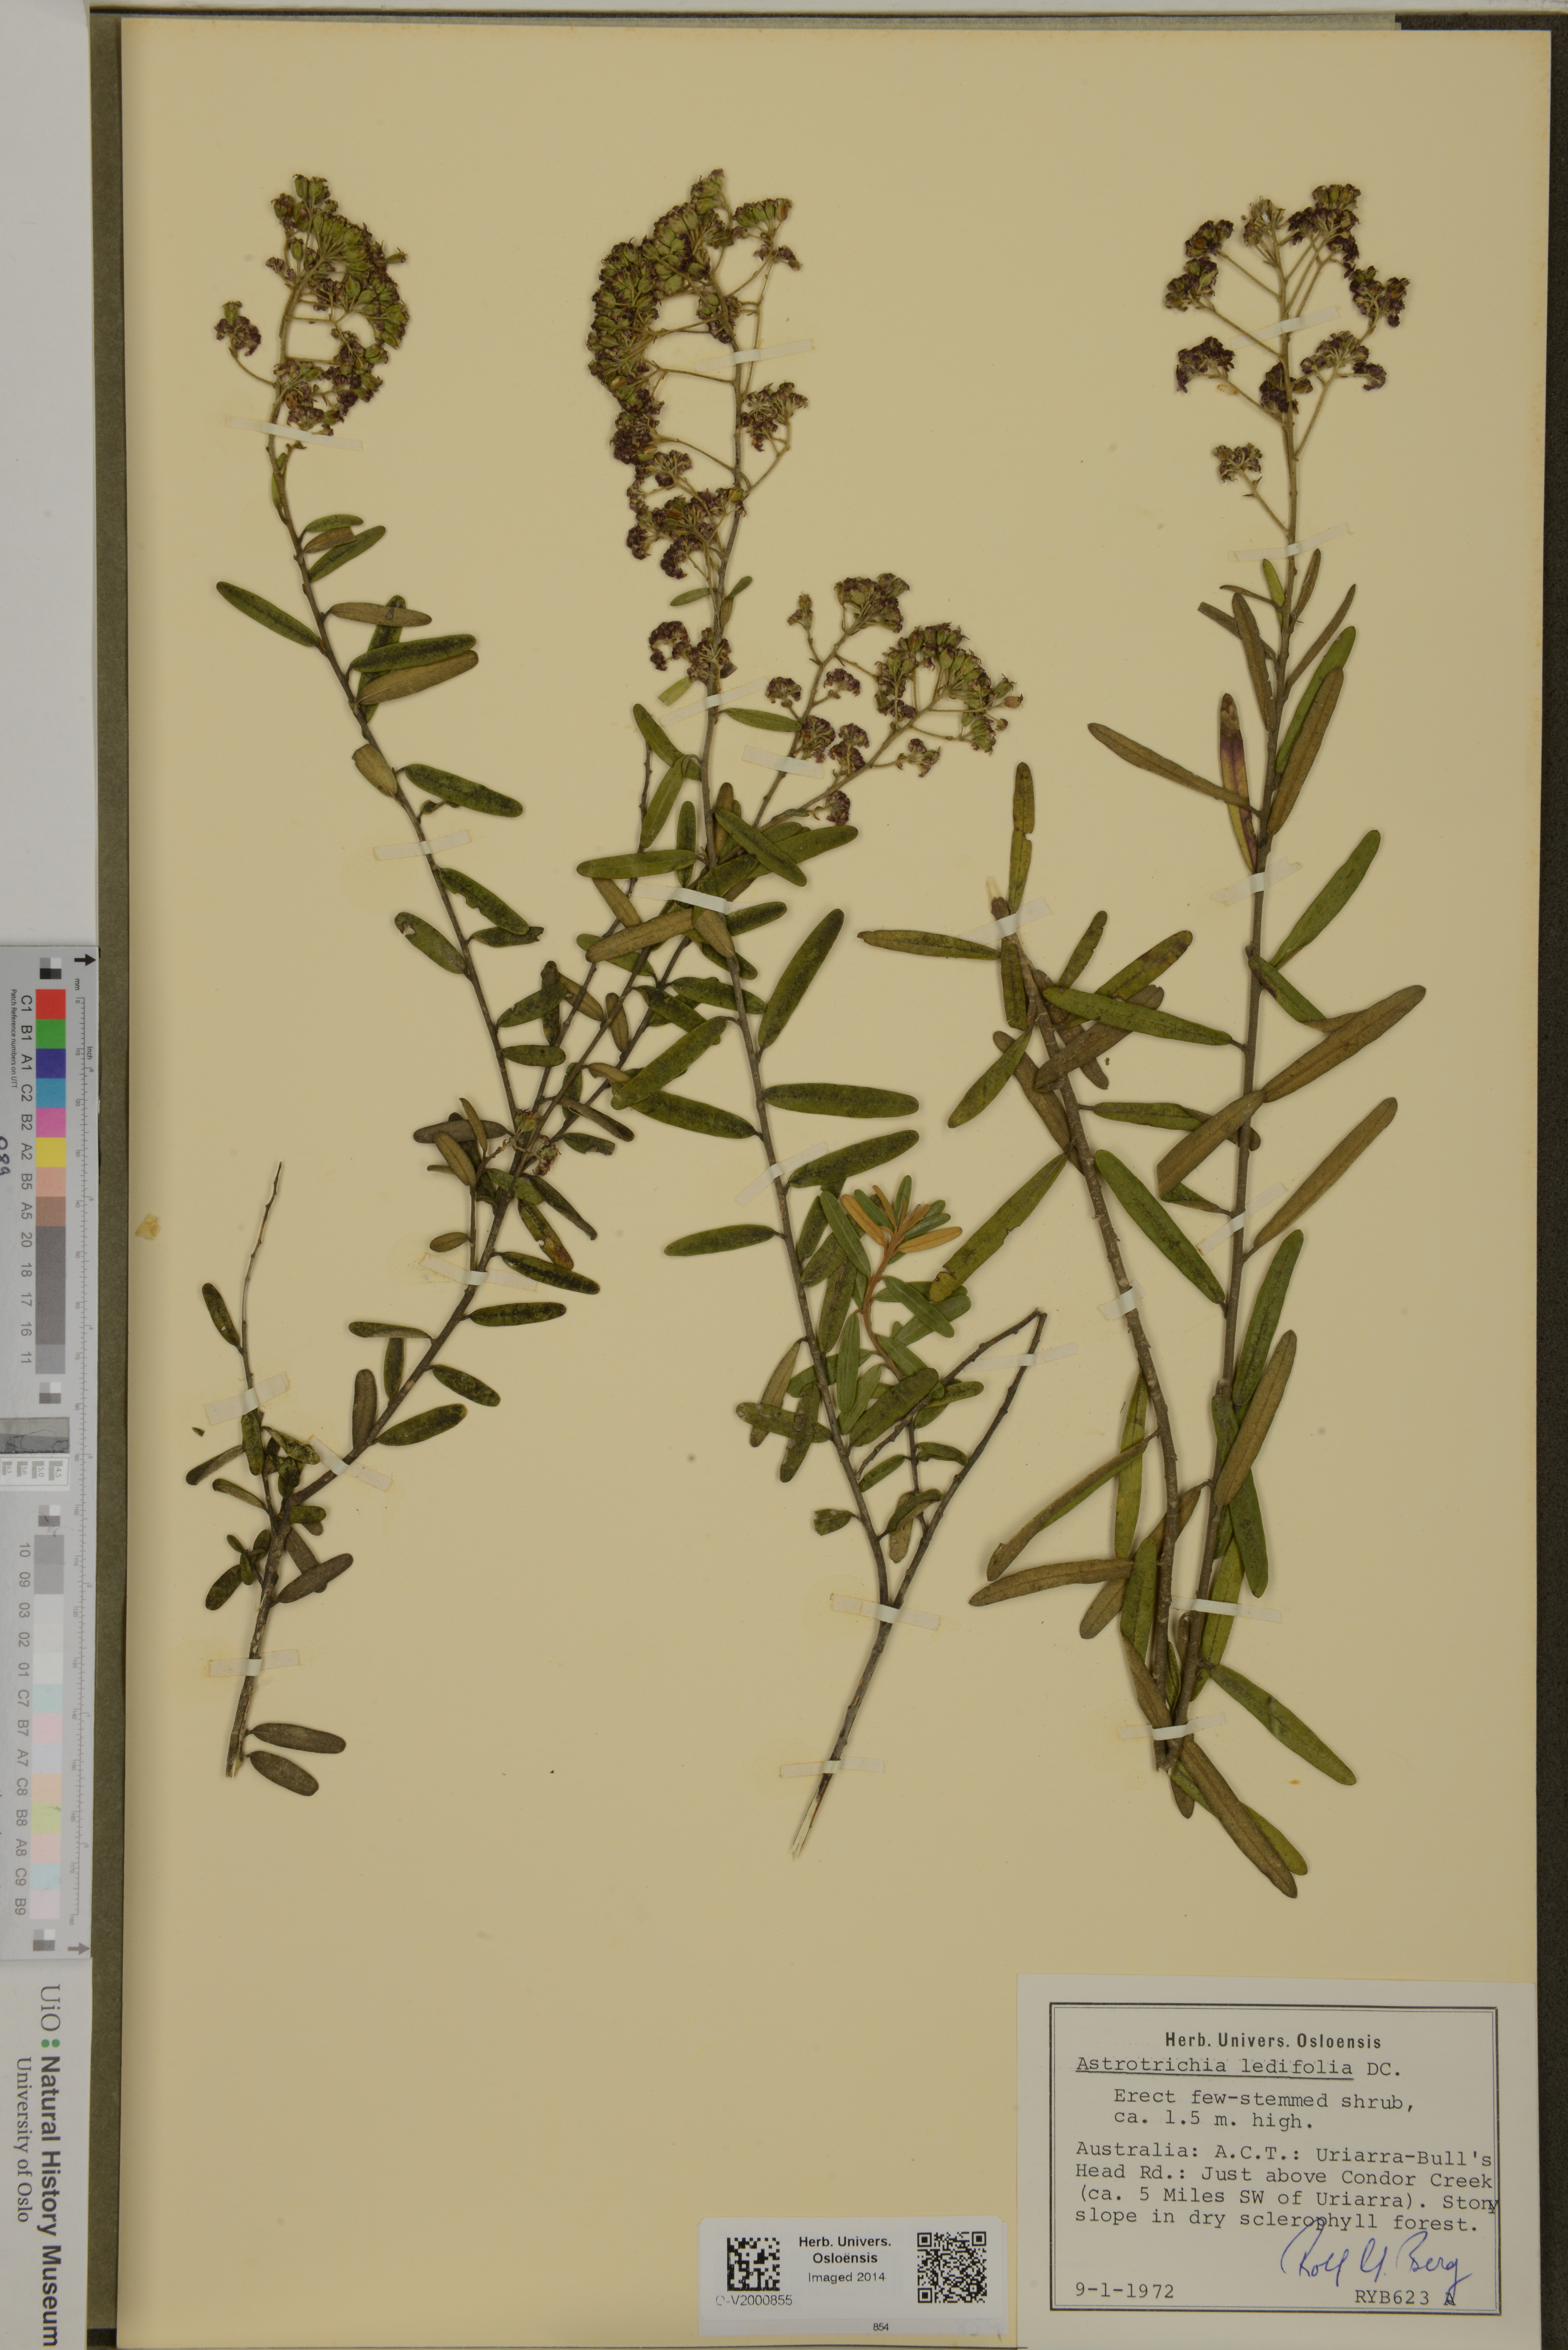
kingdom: Plantae
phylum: Tracheophyta
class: Magnoliopsida
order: Apiales
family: Araliaceae
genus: Astrotricha
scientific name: Astrotricha ledifolia
